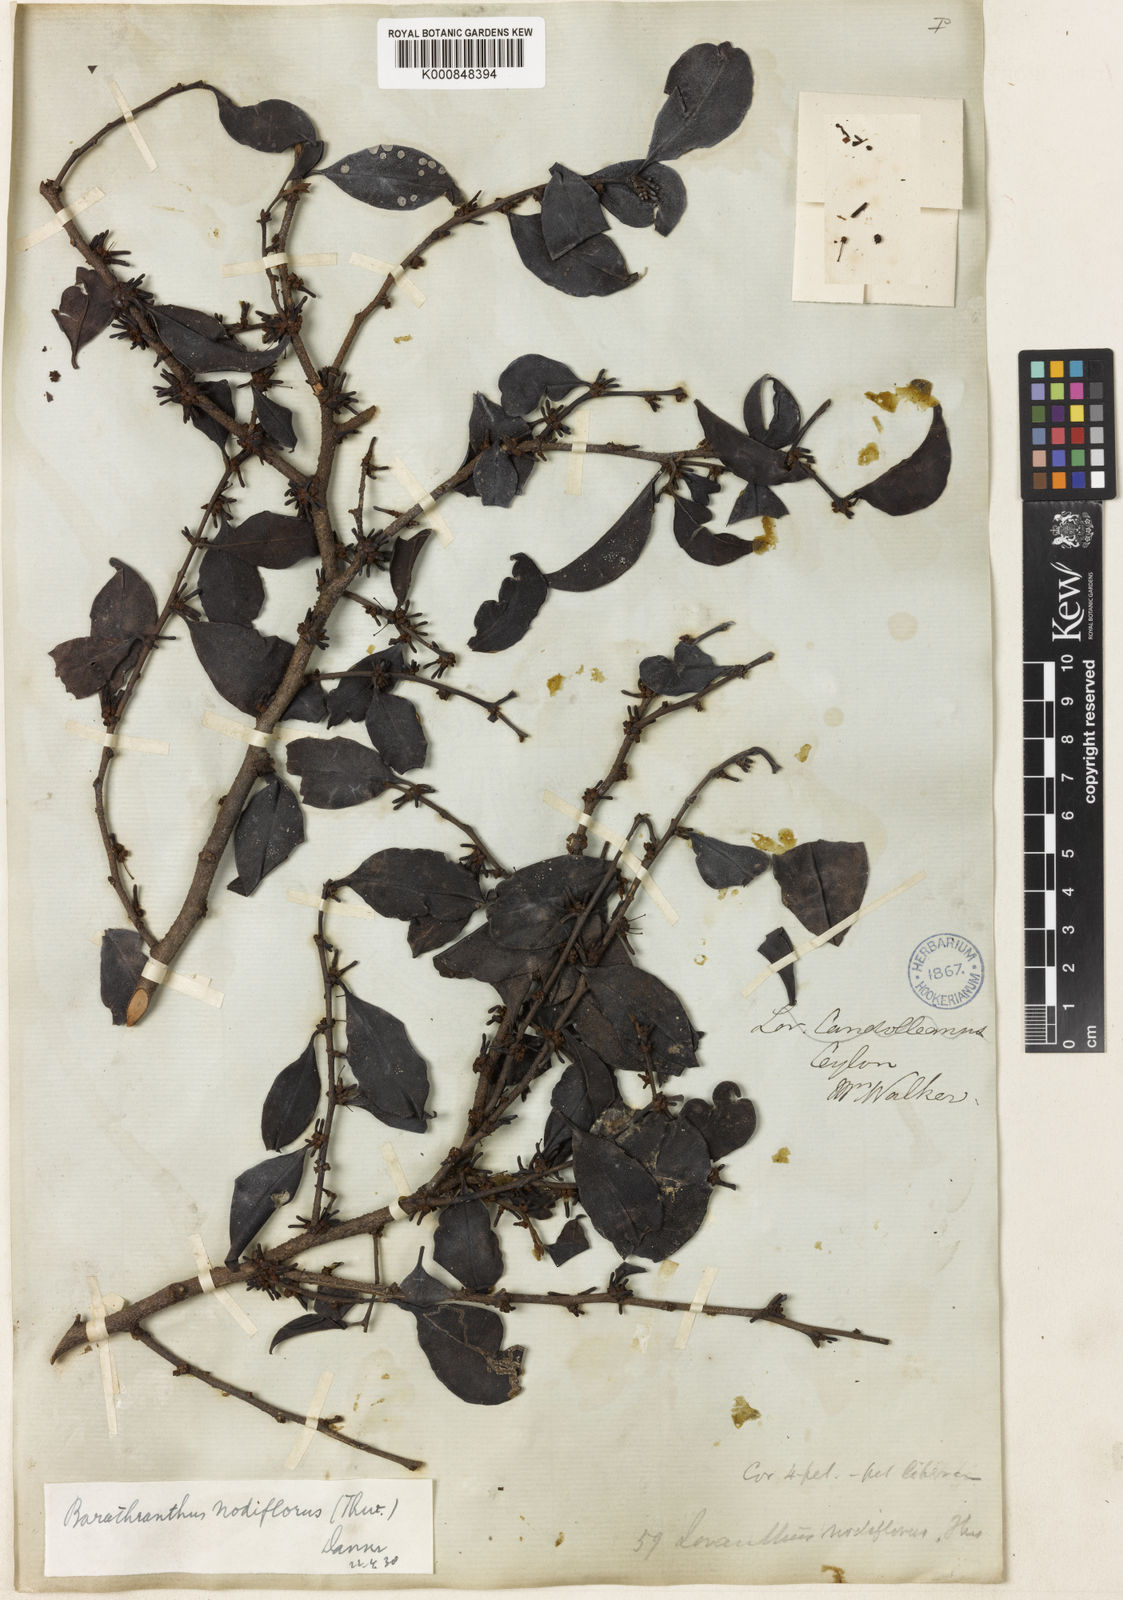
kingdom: Plantae
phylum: Tracheophyta
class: Magnoliopsida
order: Santalales
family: Loranthaceae
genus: Barathranthus
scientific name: Barathranthus
